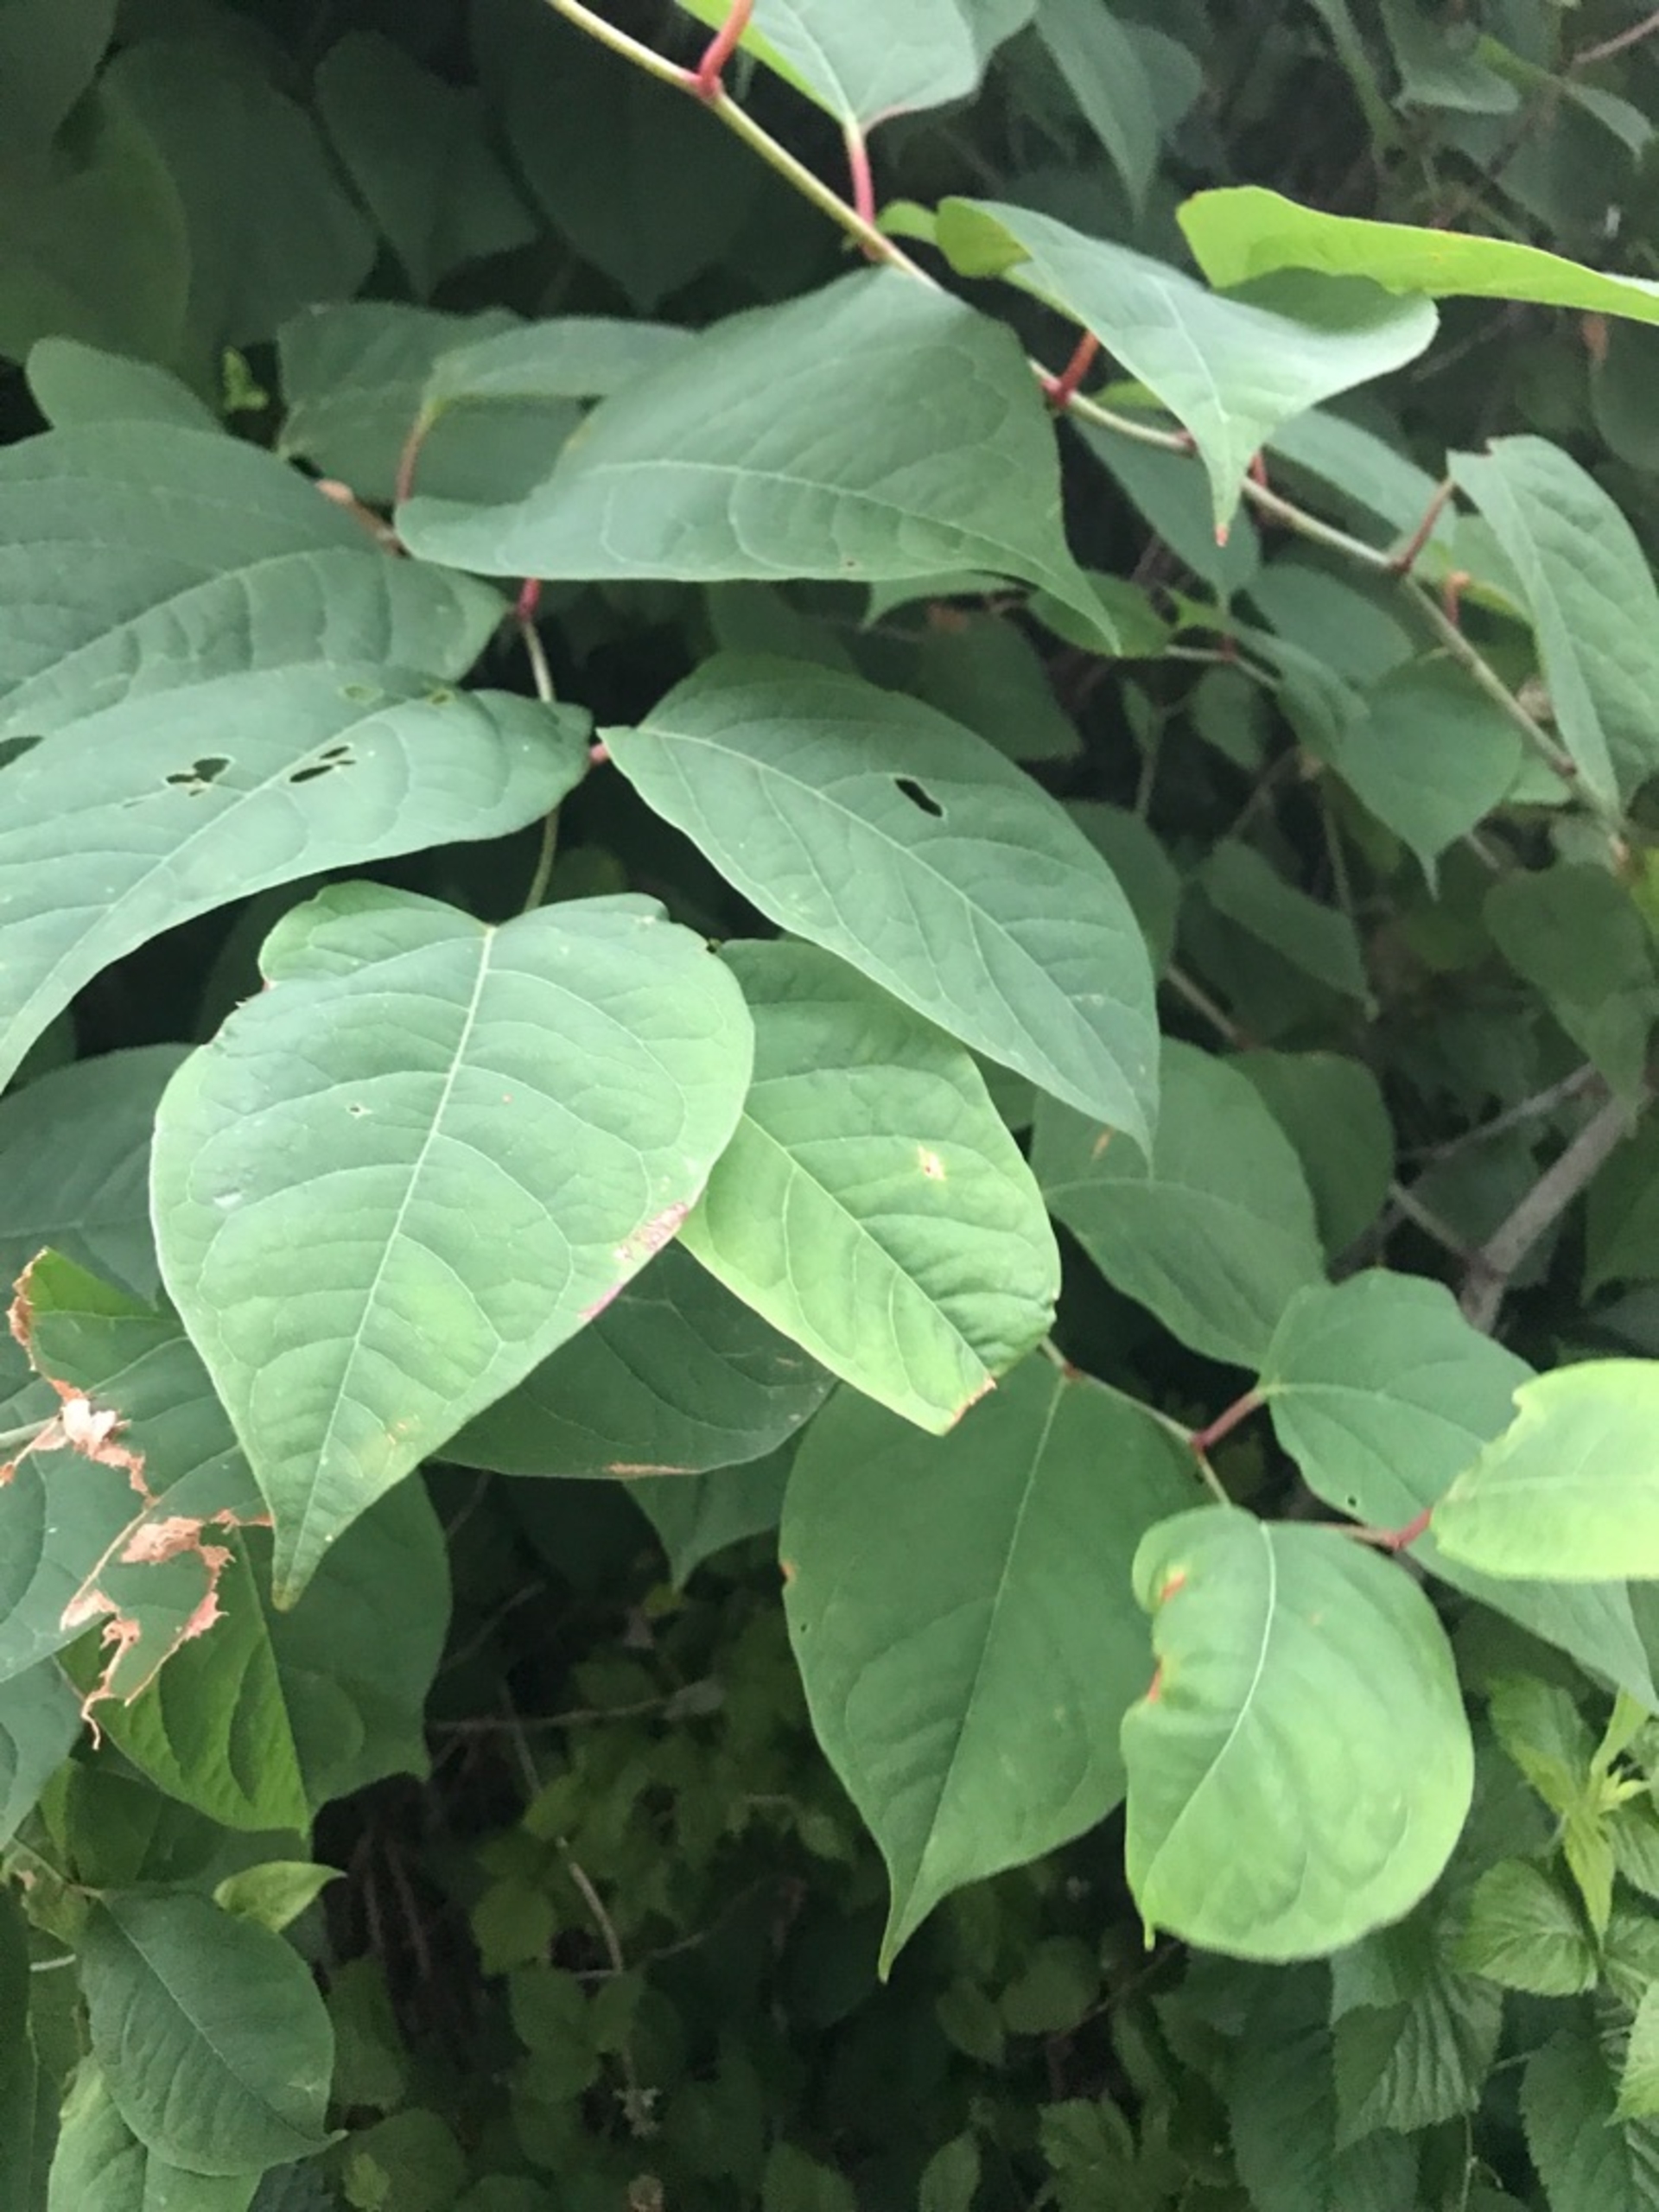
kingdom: Plantae
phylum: Tracheophyta
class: Magnoliopsida
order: Caryophyllales
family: Polygonaceae
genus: Reynoutria
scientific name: Reynoutria japonica
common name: Japan-pileurt
